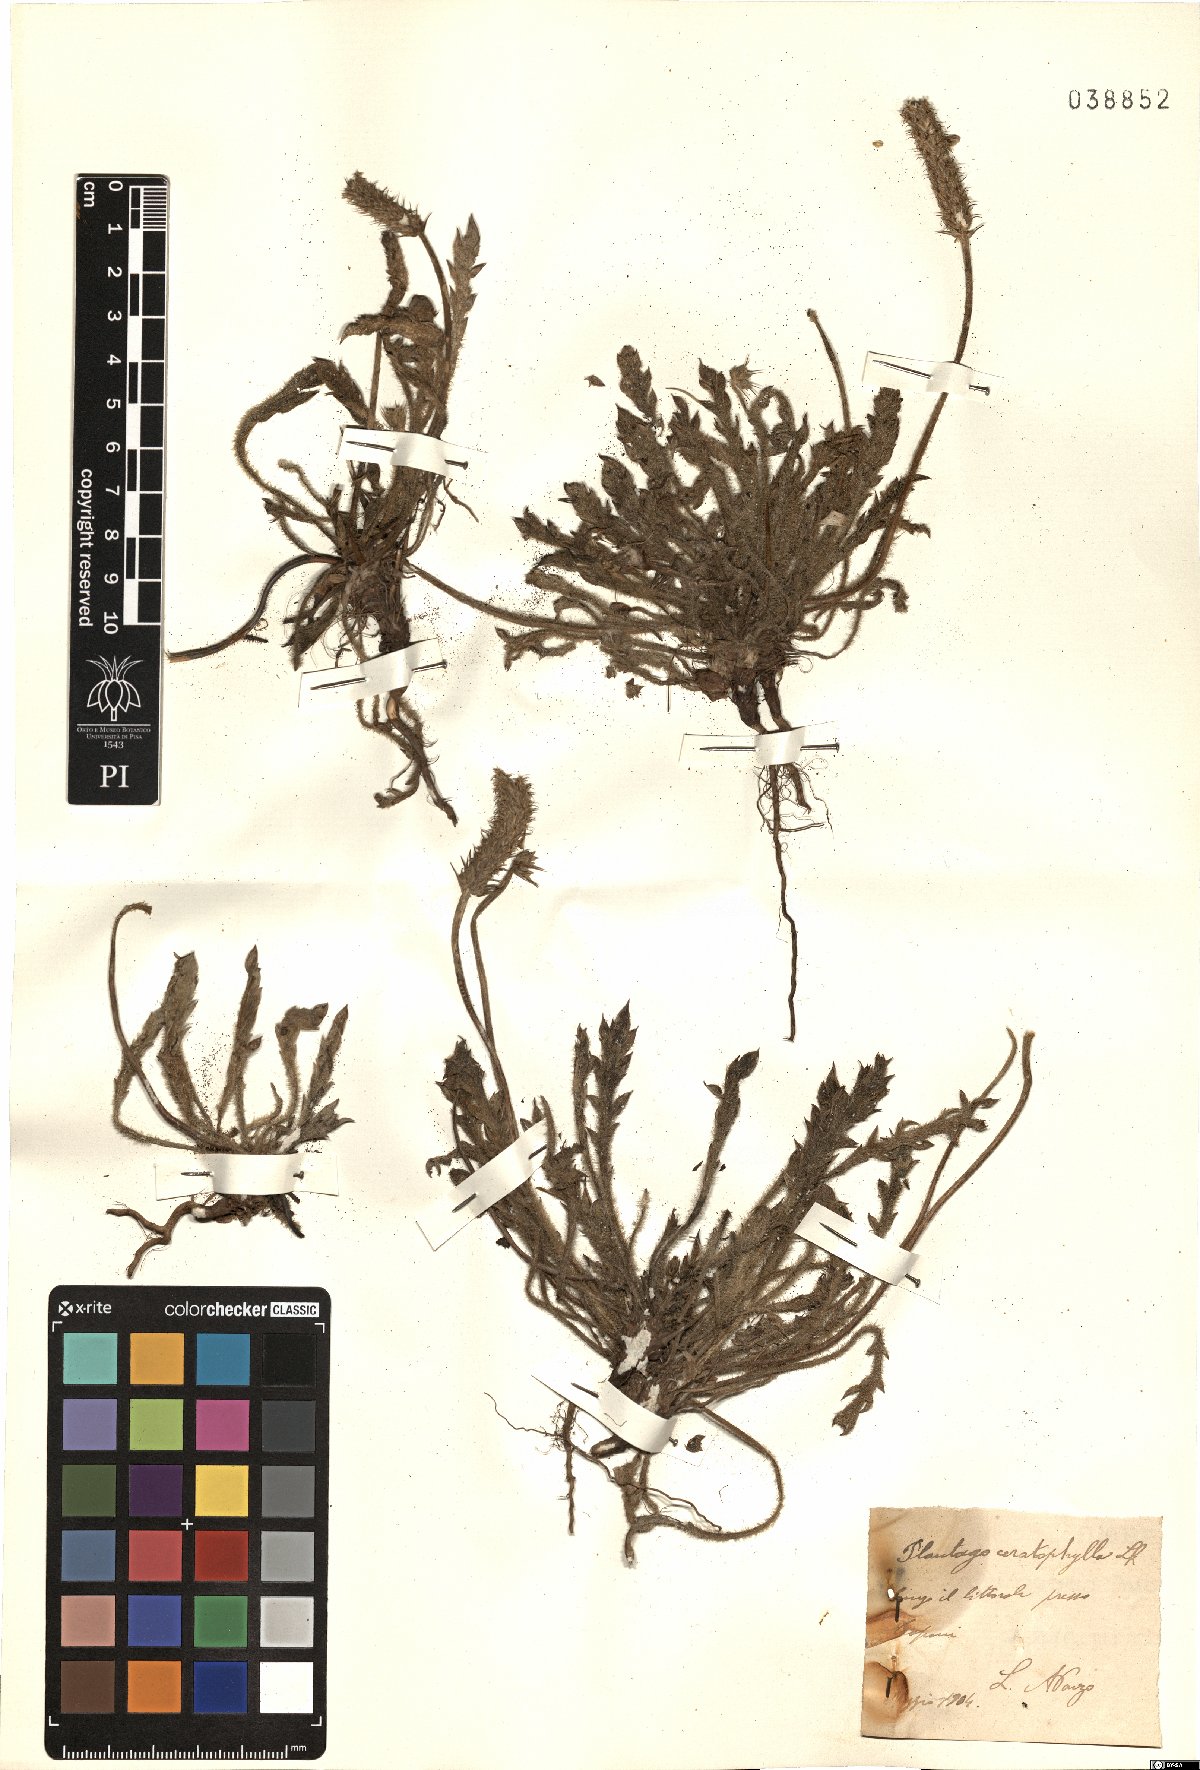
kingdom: Plantae
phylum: Tracheophyta
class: Magnoliopsida
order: Lamiales
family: Plantaginaceae
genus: Plantago
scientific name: Plantago coronopus
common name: Buck's-horn plantain
